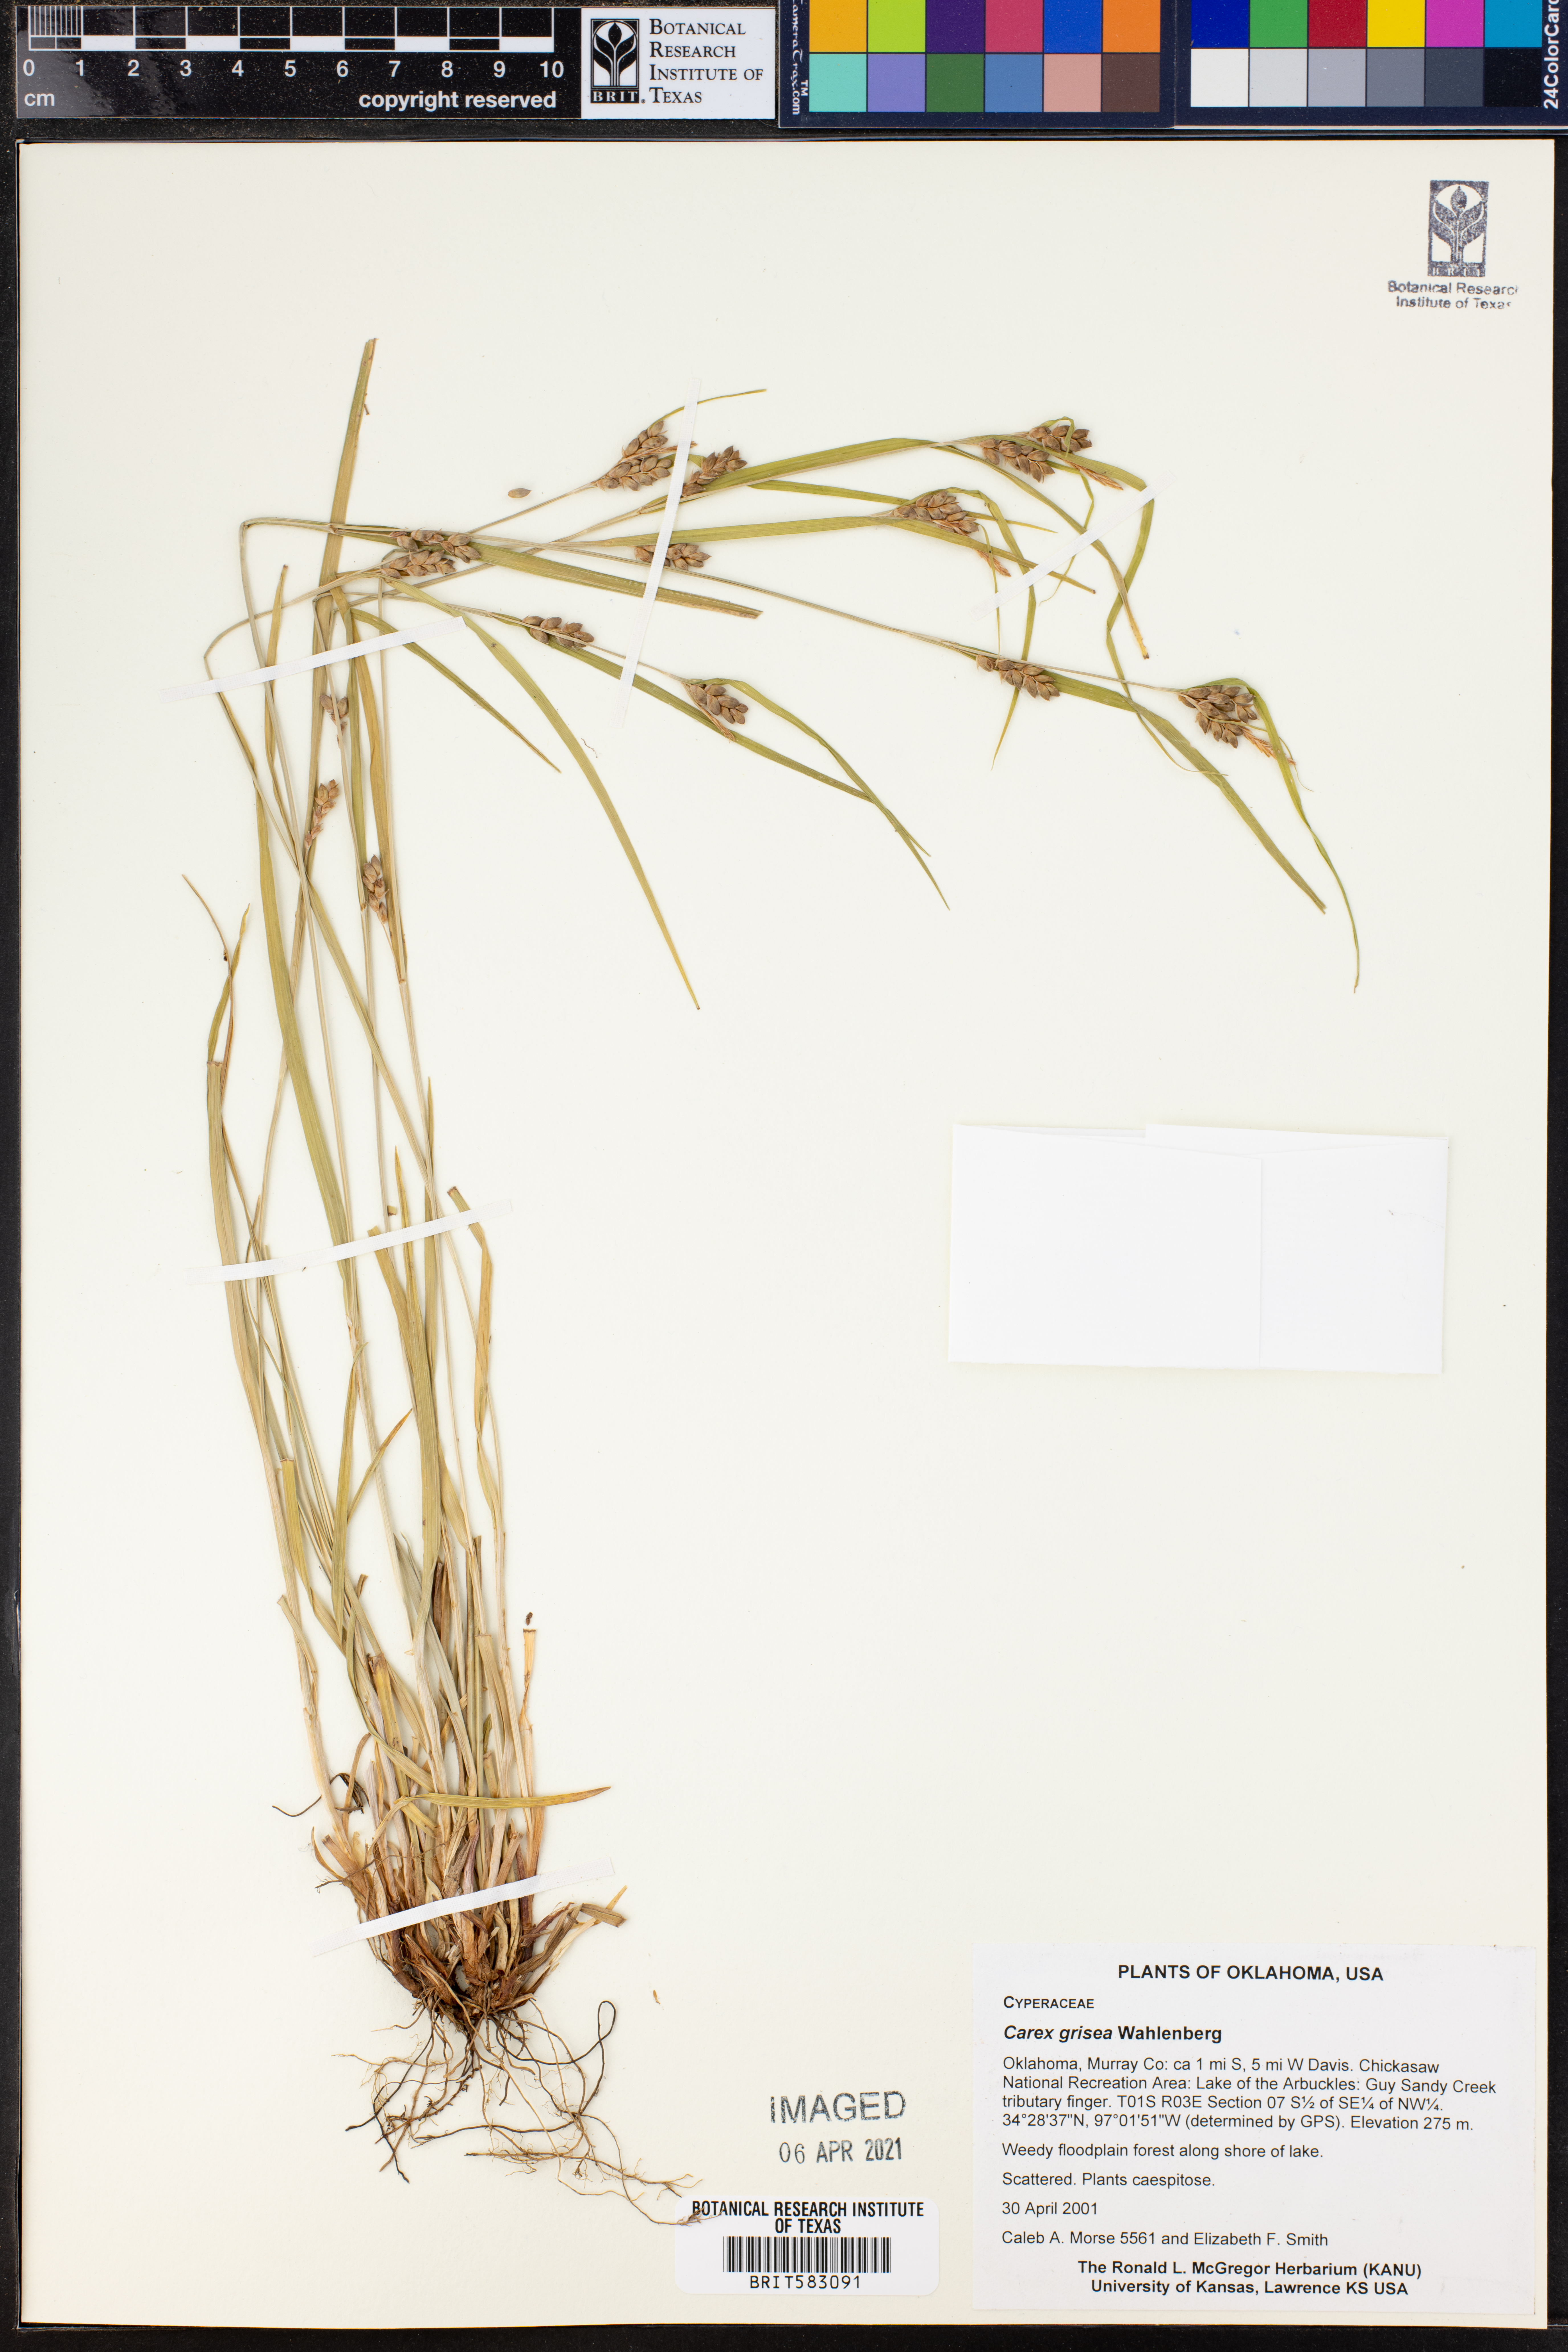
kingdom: Plantae
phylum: Tracheophyta
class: Liliopsida
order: Poales
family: Cyperaceae
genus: Carex
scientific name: Carex grisea
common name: Eastern narrow-leaved sedge
